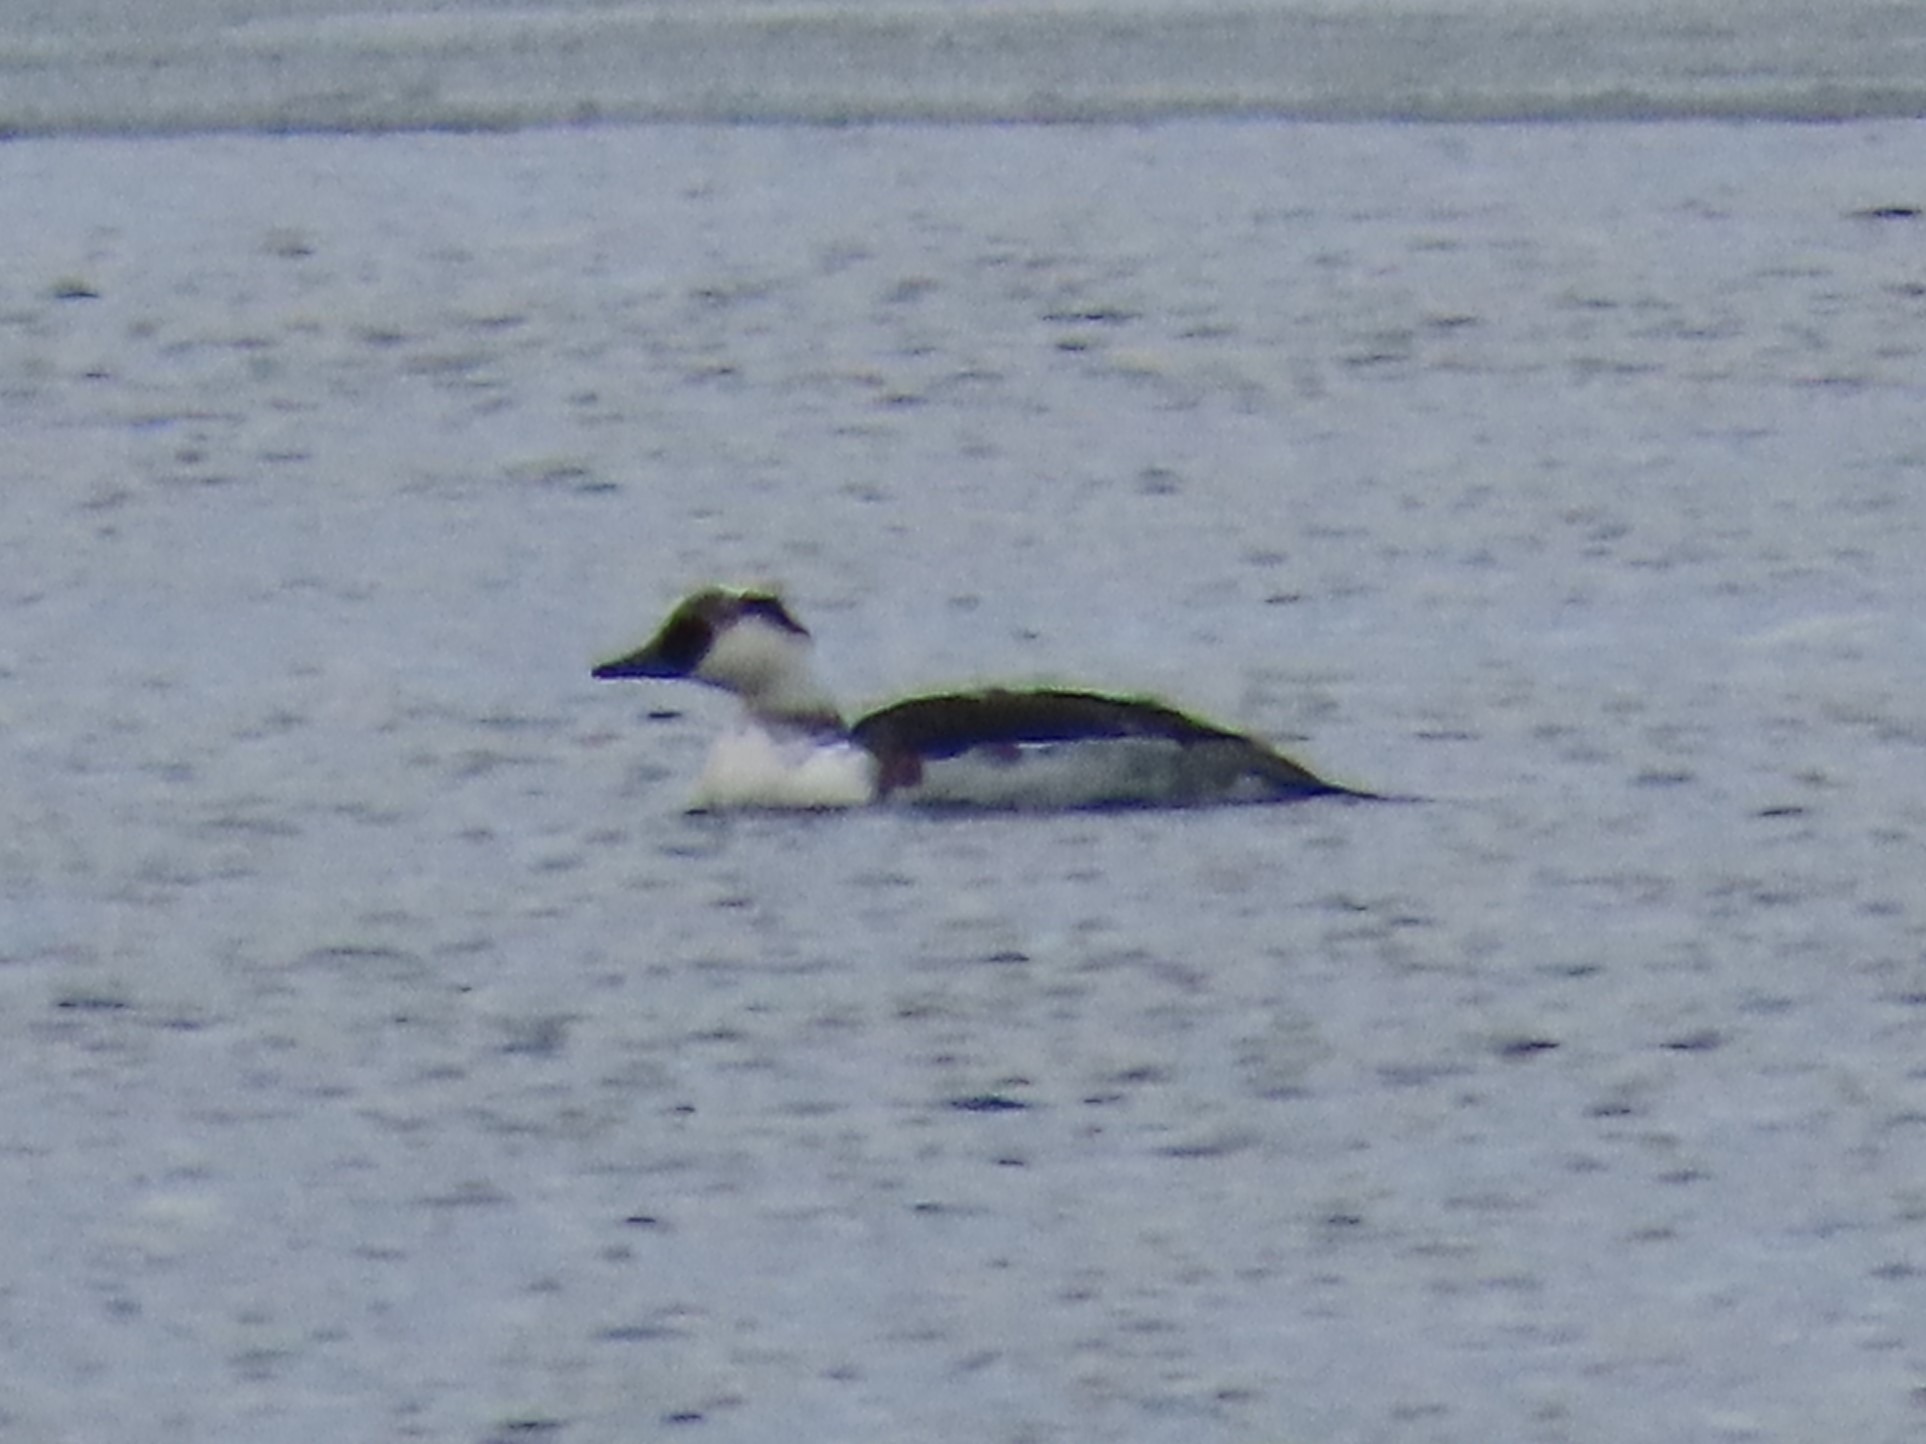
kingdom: Animalia
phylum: Chordata
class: Aves
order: Anseriformes
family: Anatidae
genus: Mergellus
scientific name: Mergellus albellus
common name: Lille skallesluger
